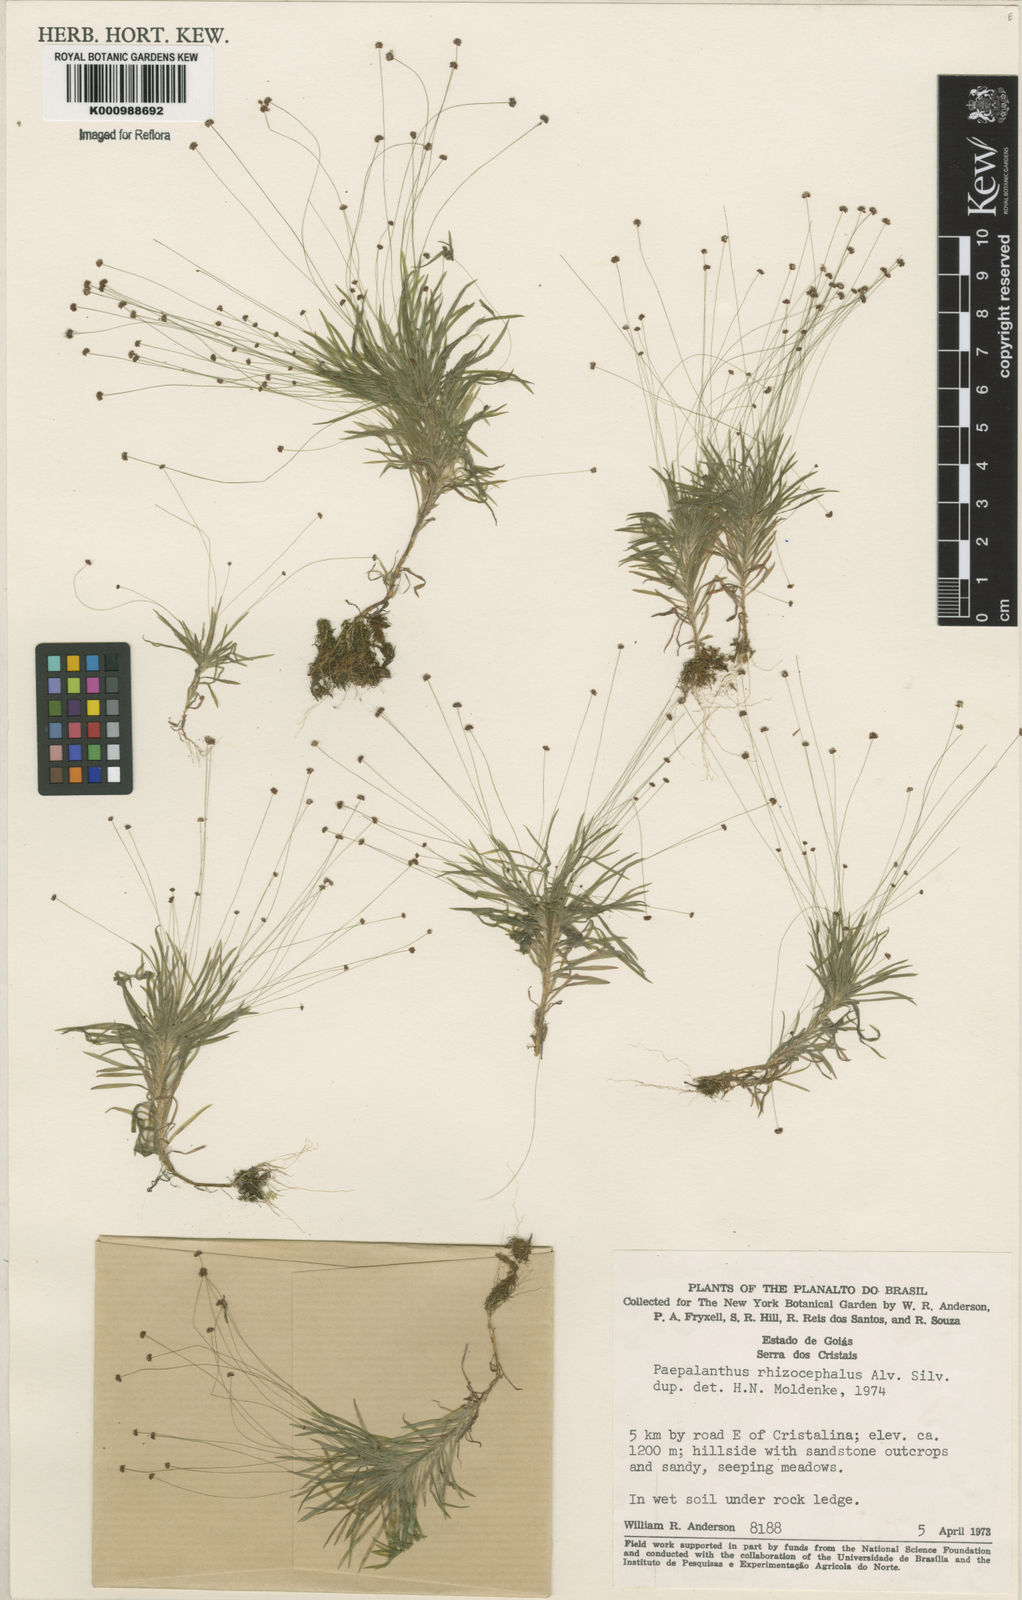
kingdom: Plantae
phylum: Tracheophyta
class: Liliopsida
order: Poales
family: Eriocaulaceae
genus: Paepalanthus
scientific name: Paepalanthus rhizocephalus
